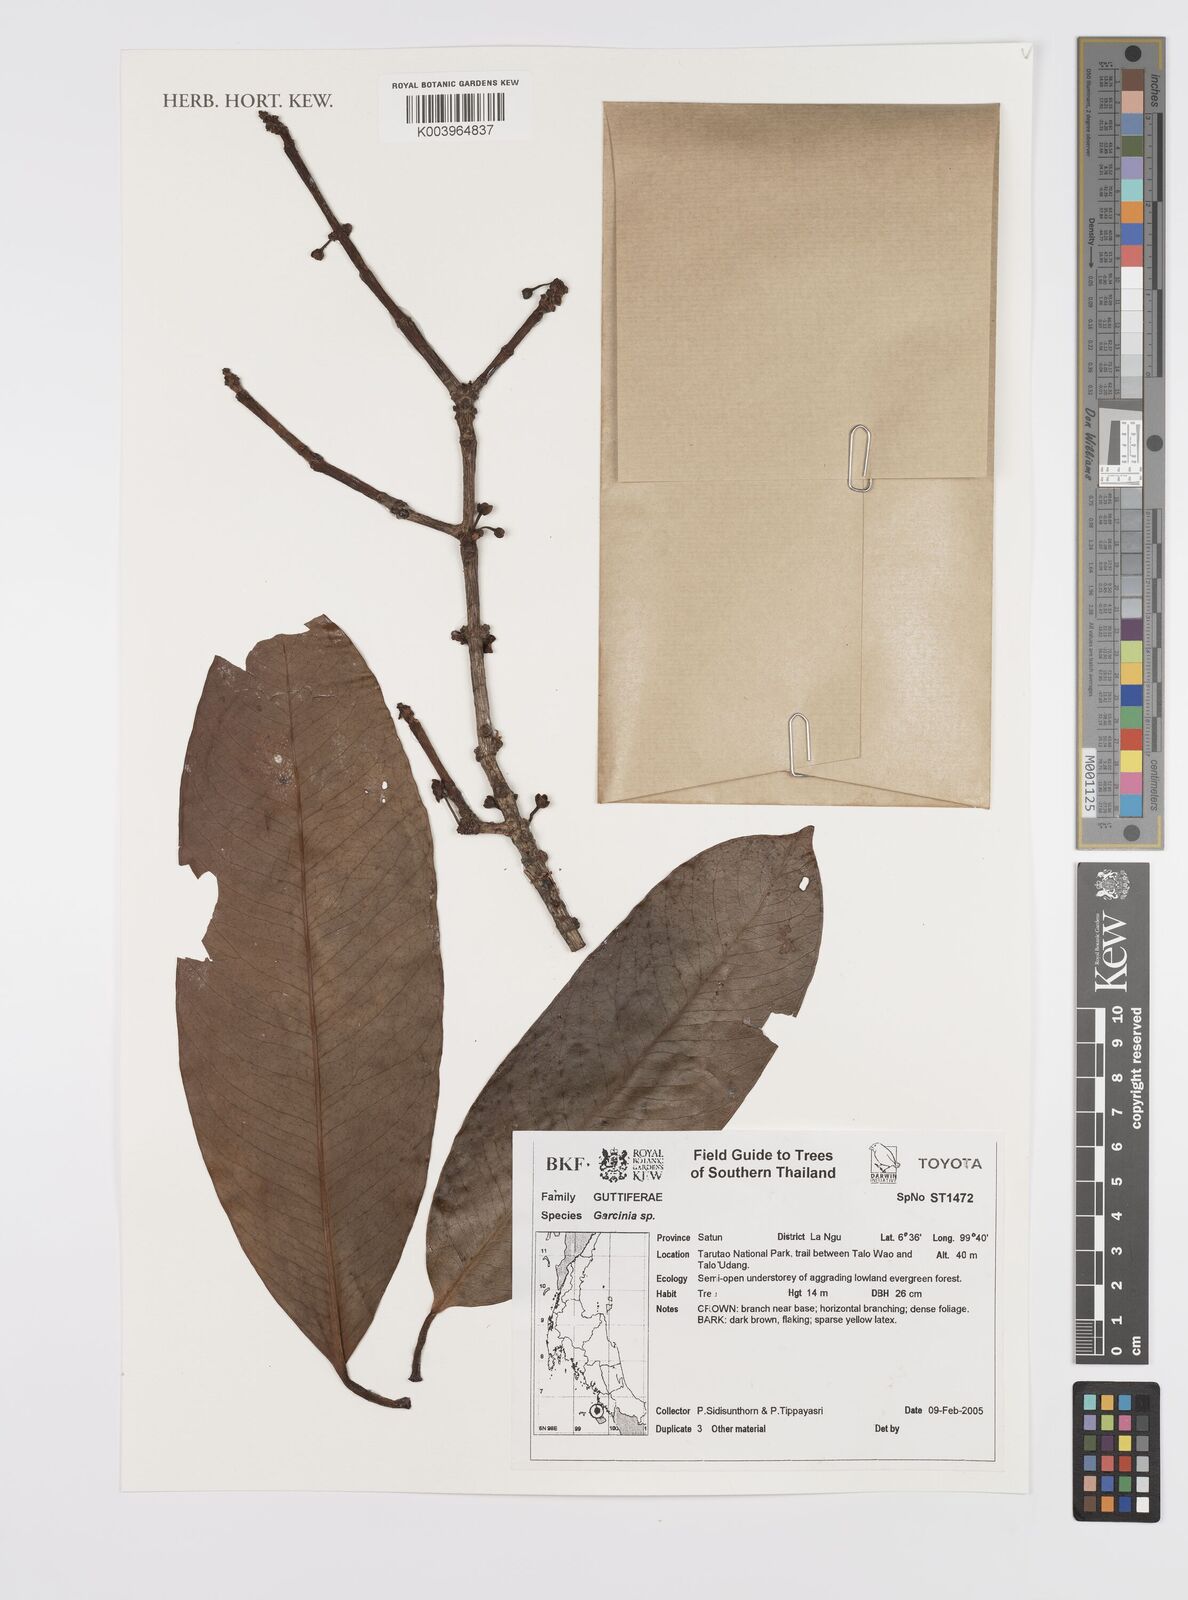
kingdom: Plantae
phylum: Tracheophyta
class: Magnoliopsida
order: Malpighiales
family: Clusiaceae
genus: Garcinia
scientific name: Garcinia
